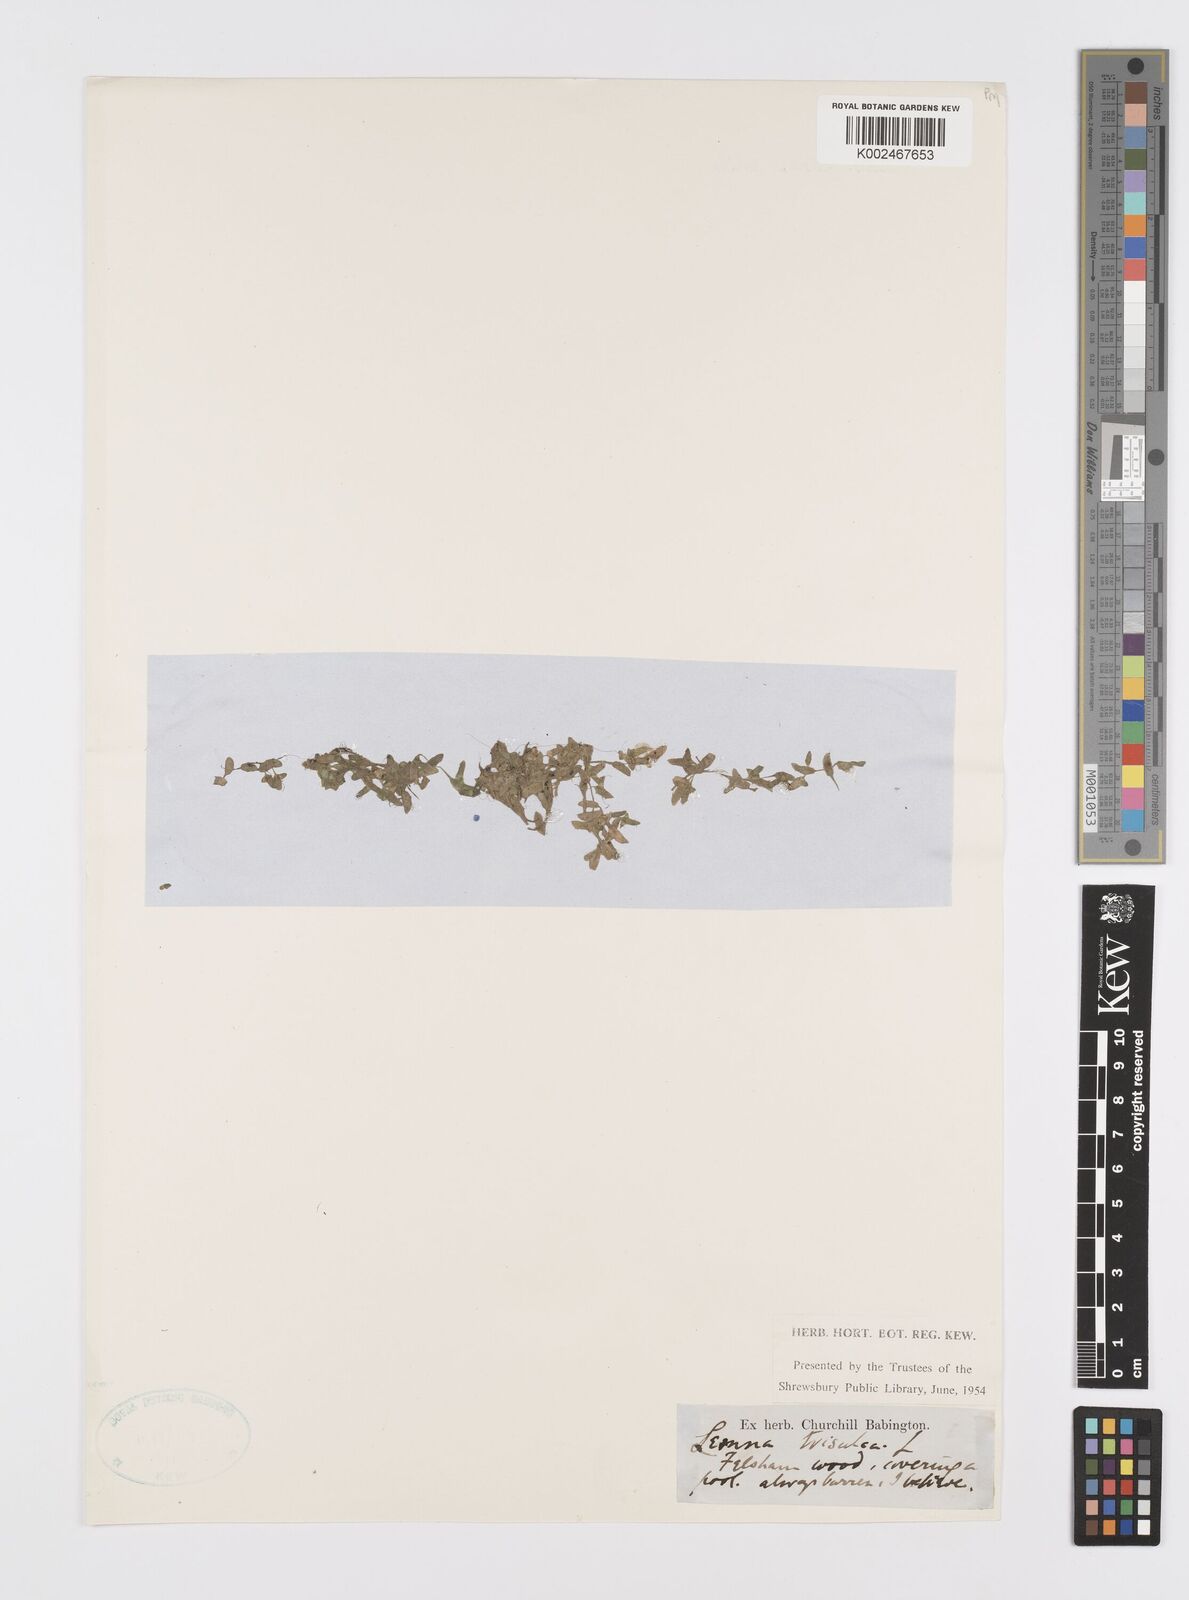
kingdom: Plantae
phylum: Tracheophyta
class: Liliopsida
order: Alismatales
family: Araceae
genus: Lemna
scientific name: Lemna trisulca
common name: Ivy-leaved duckweed
